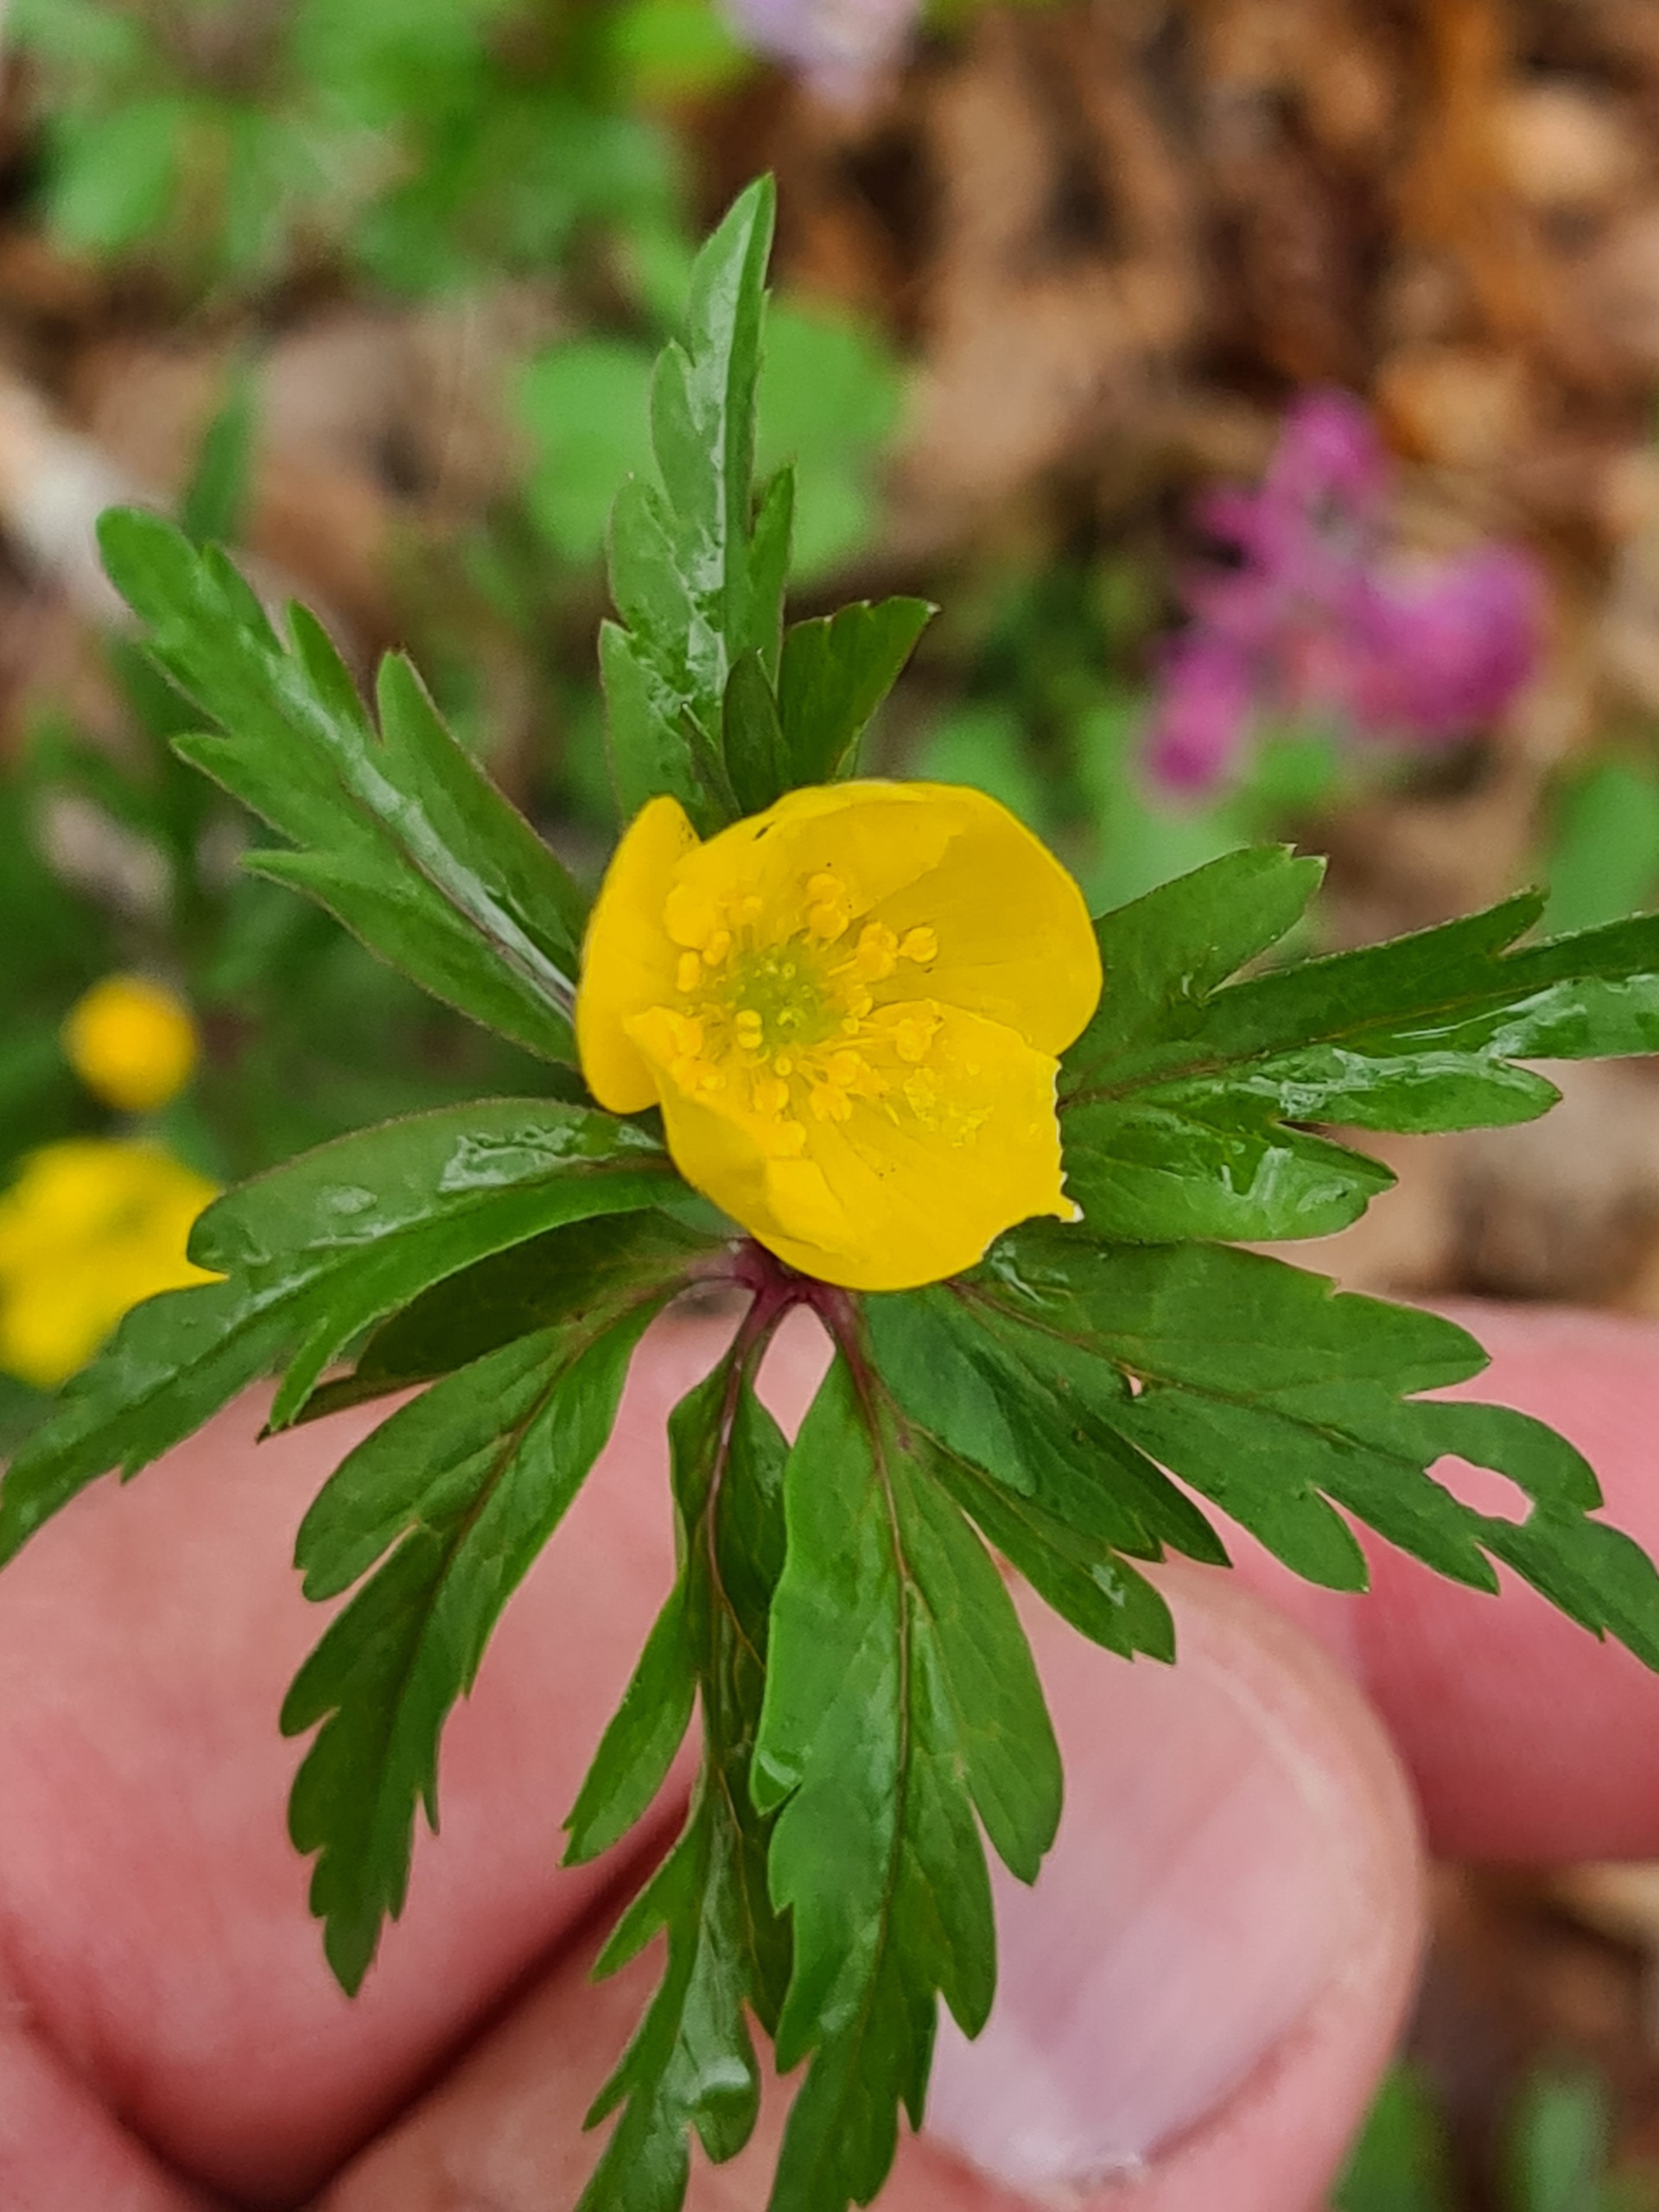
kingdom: Plantae
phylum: Tracheophyta
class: Magnoliopsida
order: Ranunculales
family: Ranunculaceae
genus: Anemone
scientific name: Anemone ranunculoides
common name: Gul anemone
